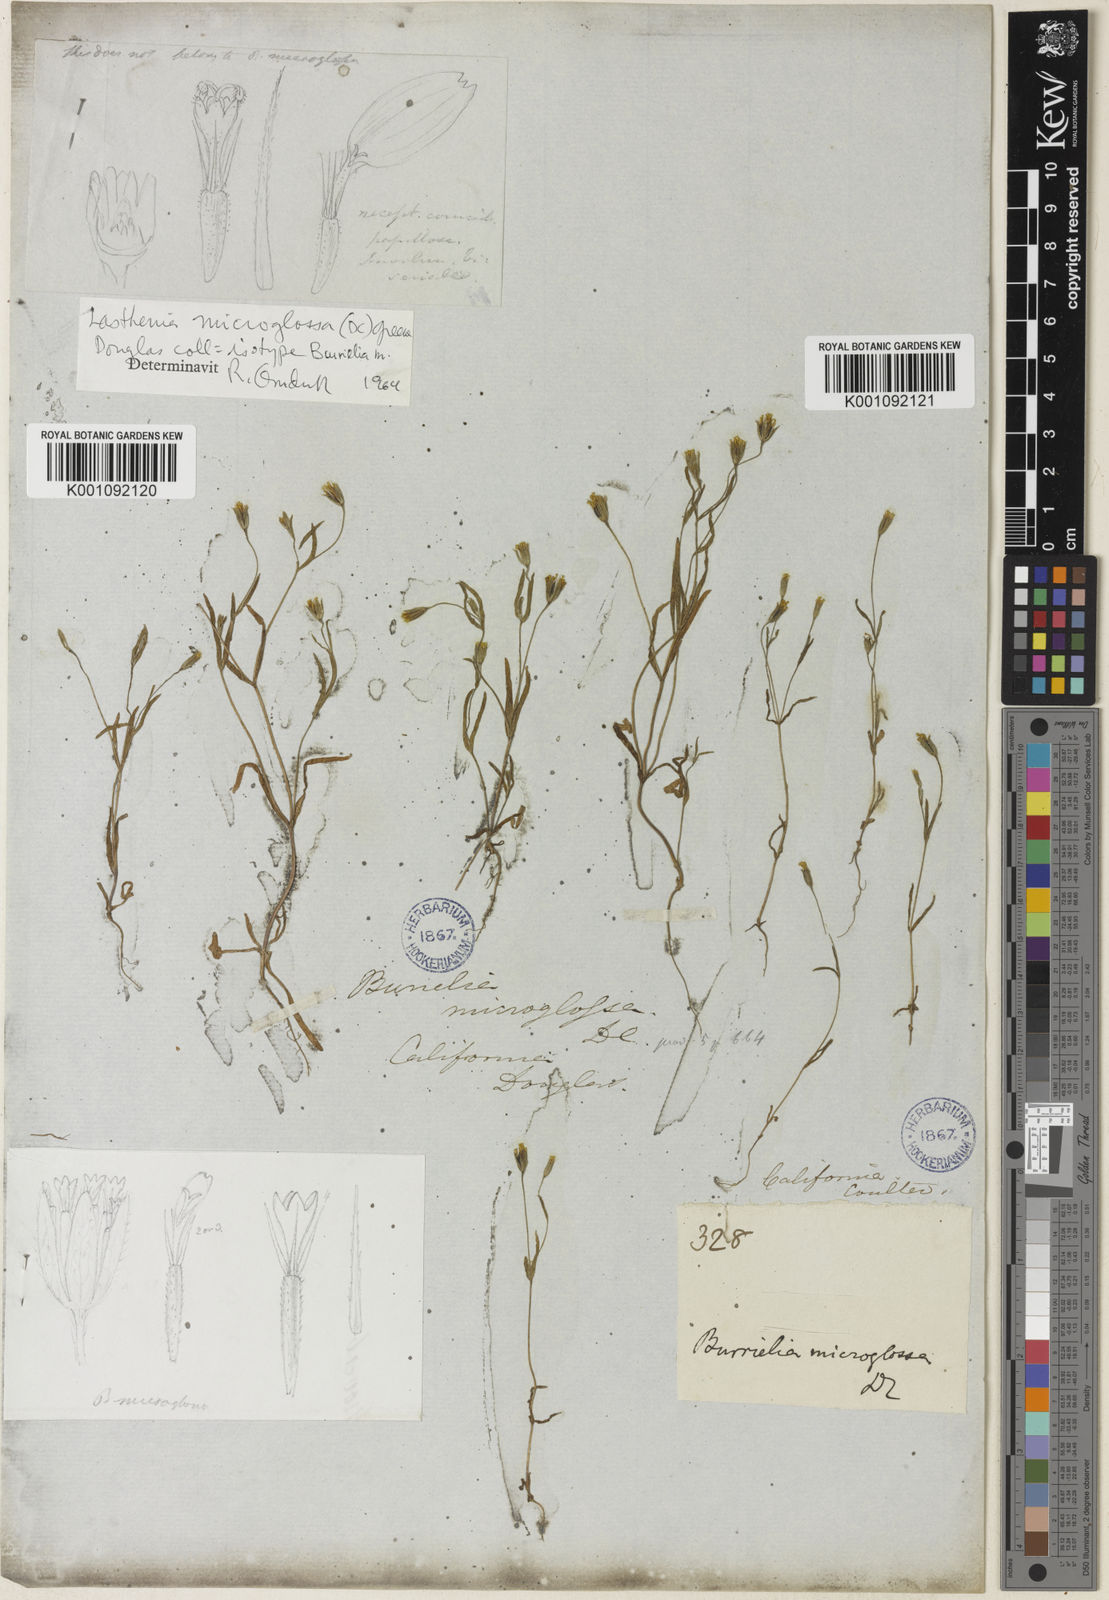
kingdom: Plantae
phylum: Tracheophyta
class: Magnoliopsida
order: Asterales
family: Asteraceae
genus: Lasthenia
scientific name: Lasthenia microglossa
